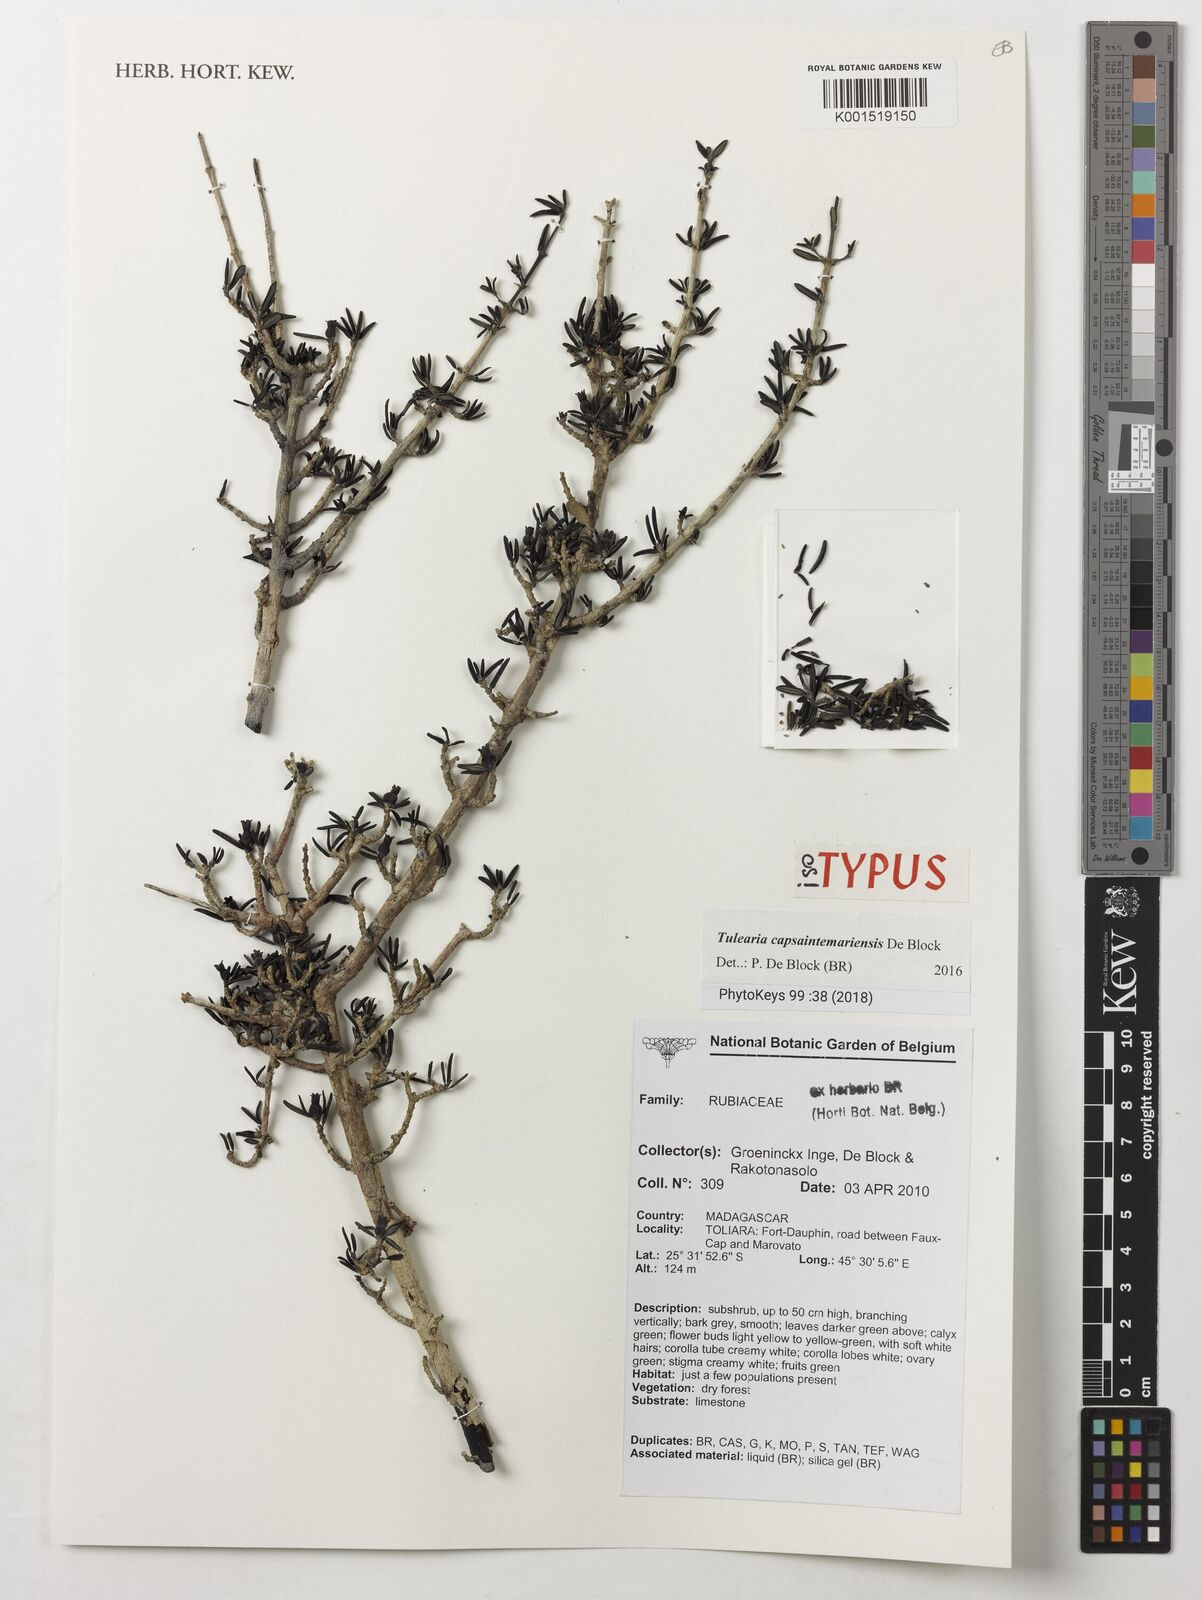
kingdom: Plantae
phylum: Tracheophyta
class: Magnoliopsida
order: Gentianales
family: Rubiaceae
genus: Tulearia
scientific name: Tulearia capsaintemariensis
